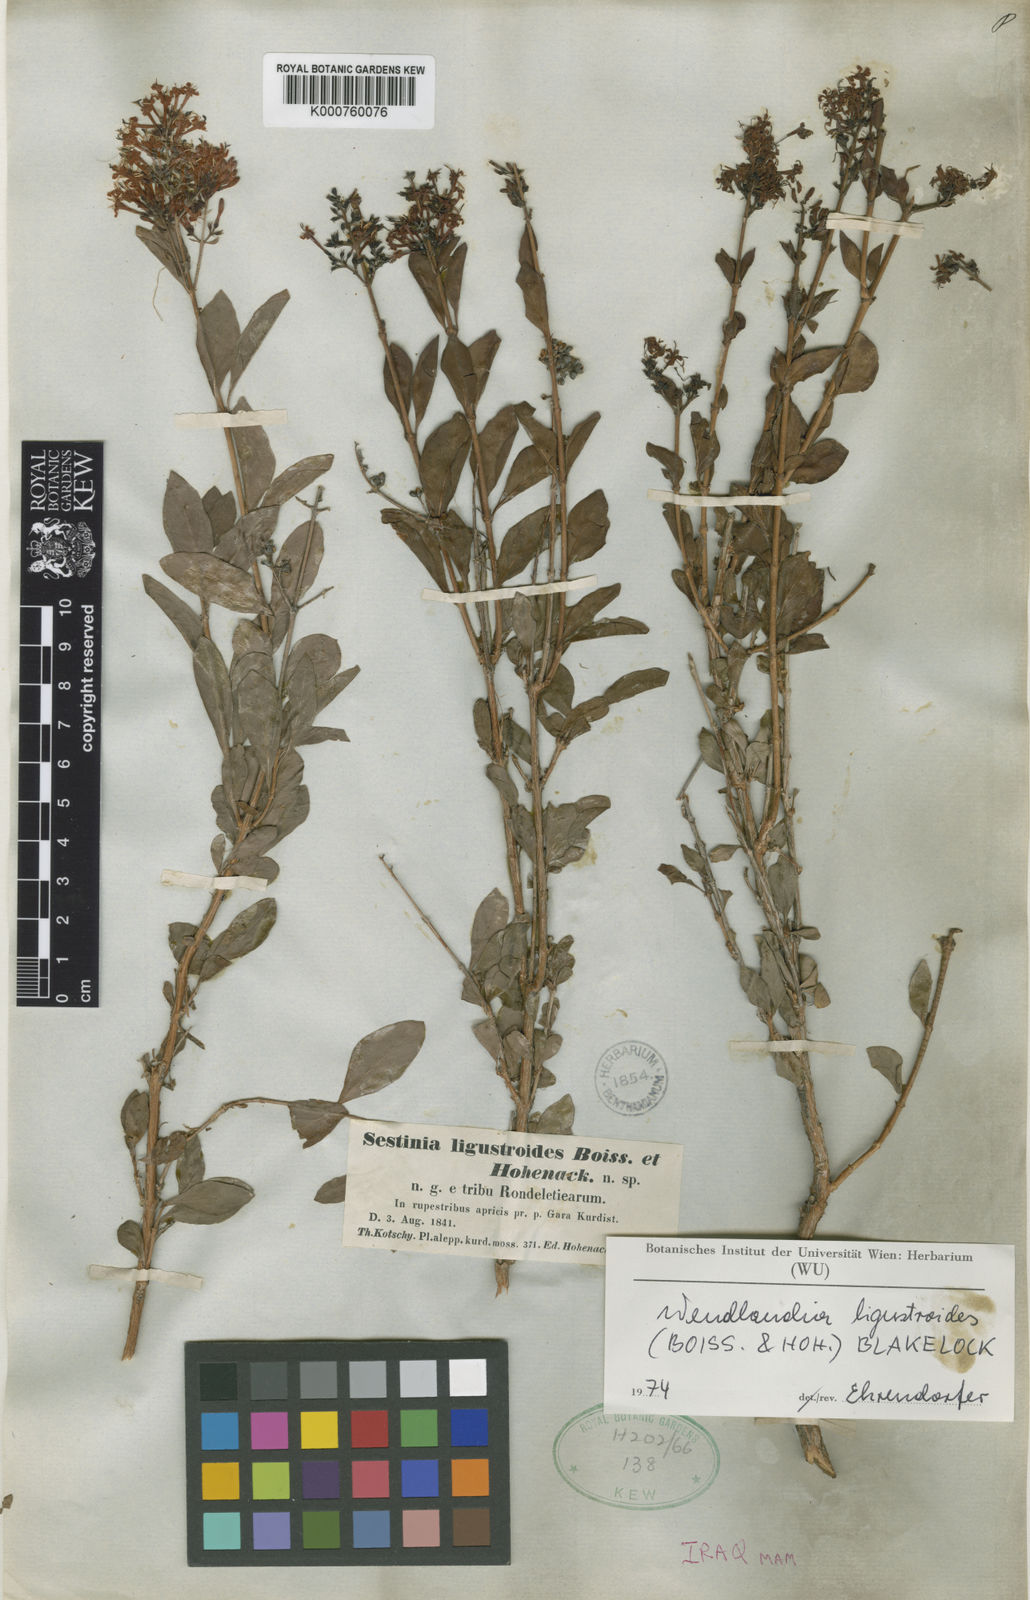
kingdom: Plantae
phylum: Tracheophyta
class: Magnoliopsida
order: Gentianales
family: Rubiaceae
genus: Wendlandia
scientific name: Wendlandia ligustroides
